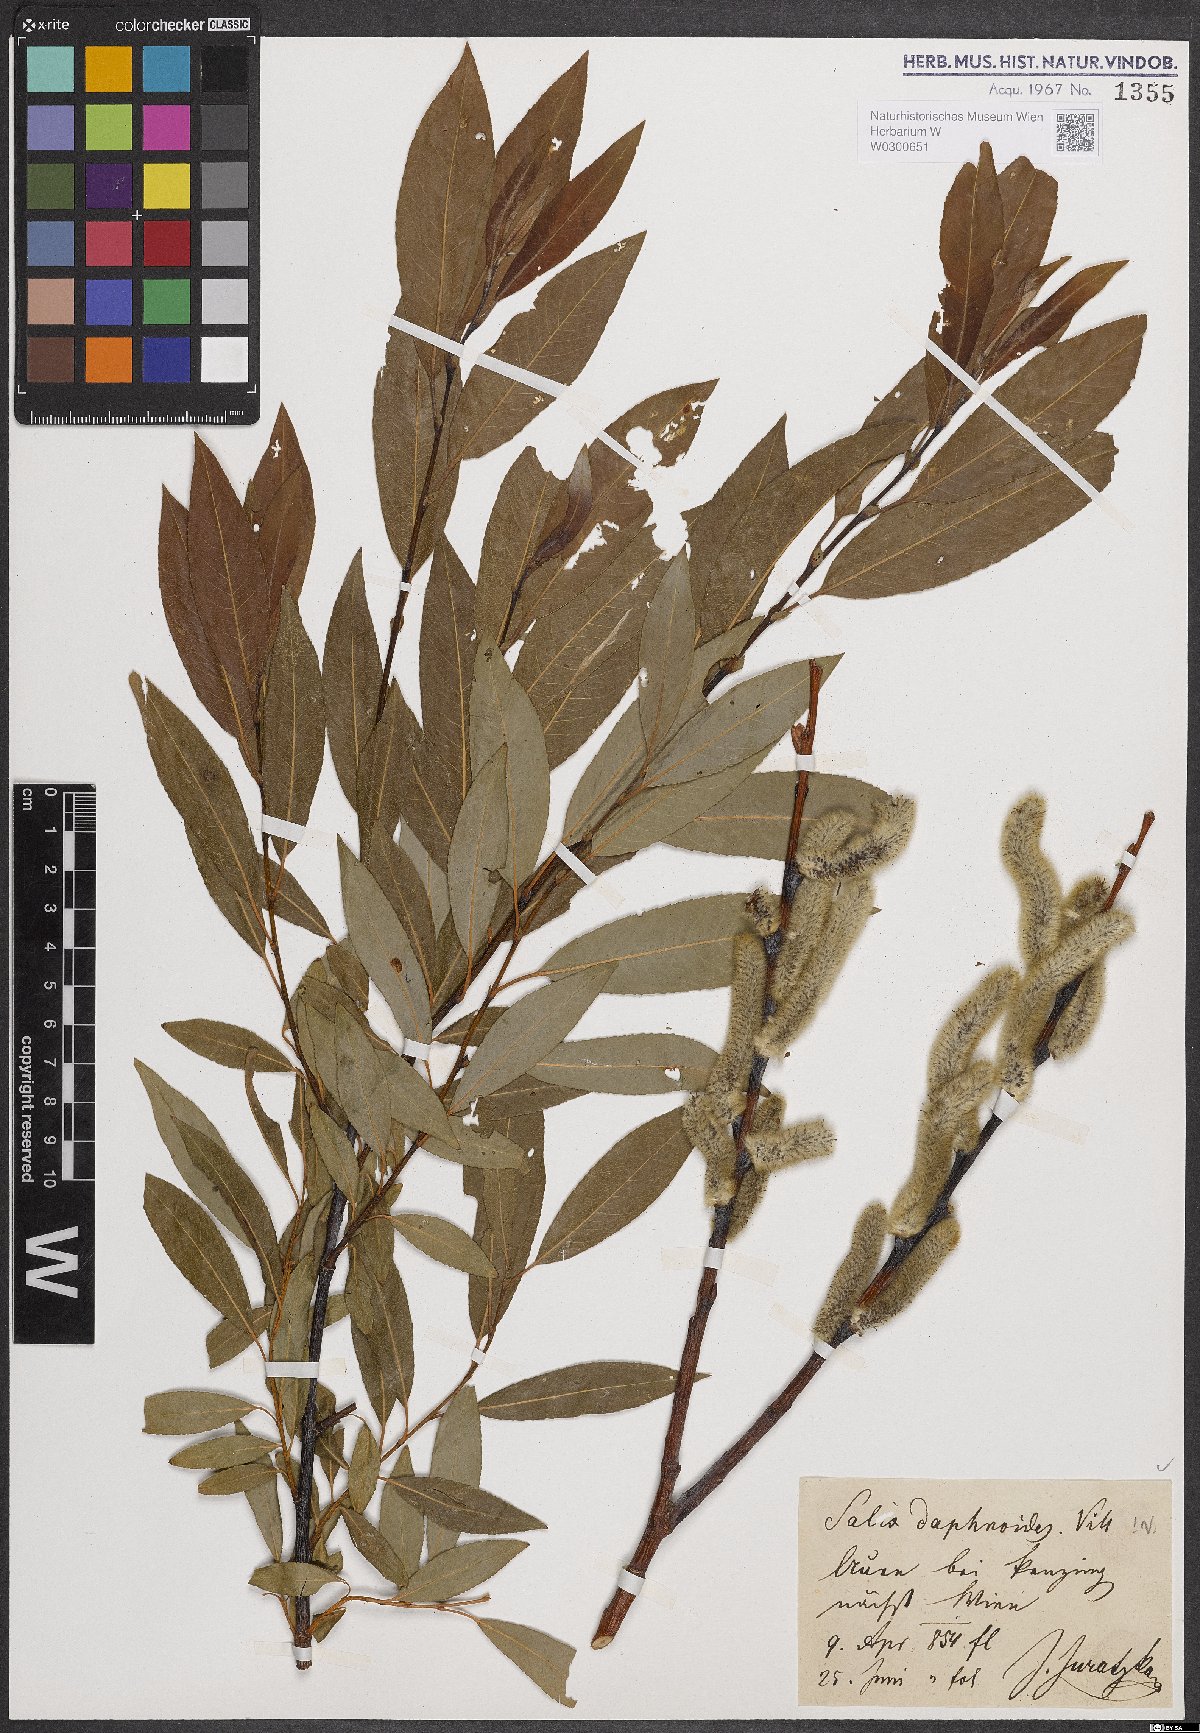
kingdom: Plantae
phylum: Tracheophyta
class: Magnoliopsida
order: Malpighiales
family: Salicaceae
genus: Salix
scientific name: Salix daphnoides
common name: European violet-willow
